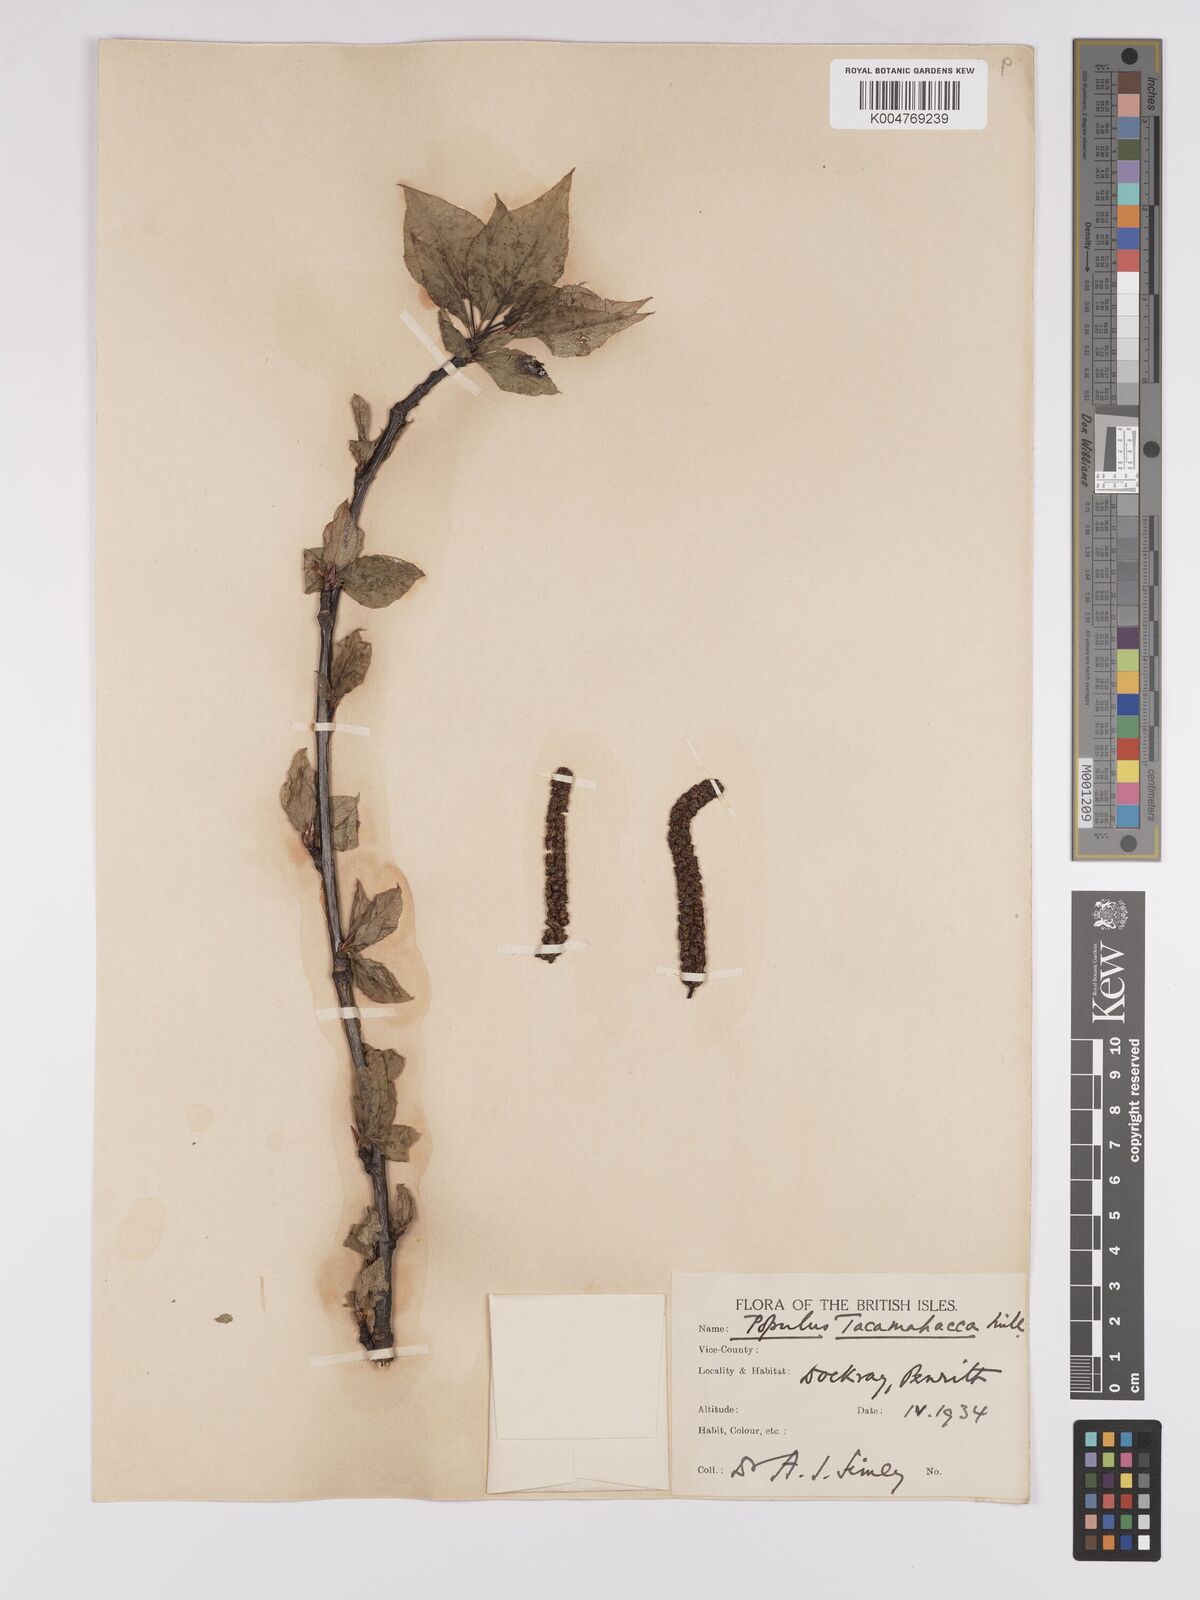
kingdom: Plantae
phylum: Tracheophyta
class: Magnoliopsida
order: Malpighiales
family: Salicaceae
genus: Populus
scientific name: Populus balsamifera
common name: Balsam poplar
